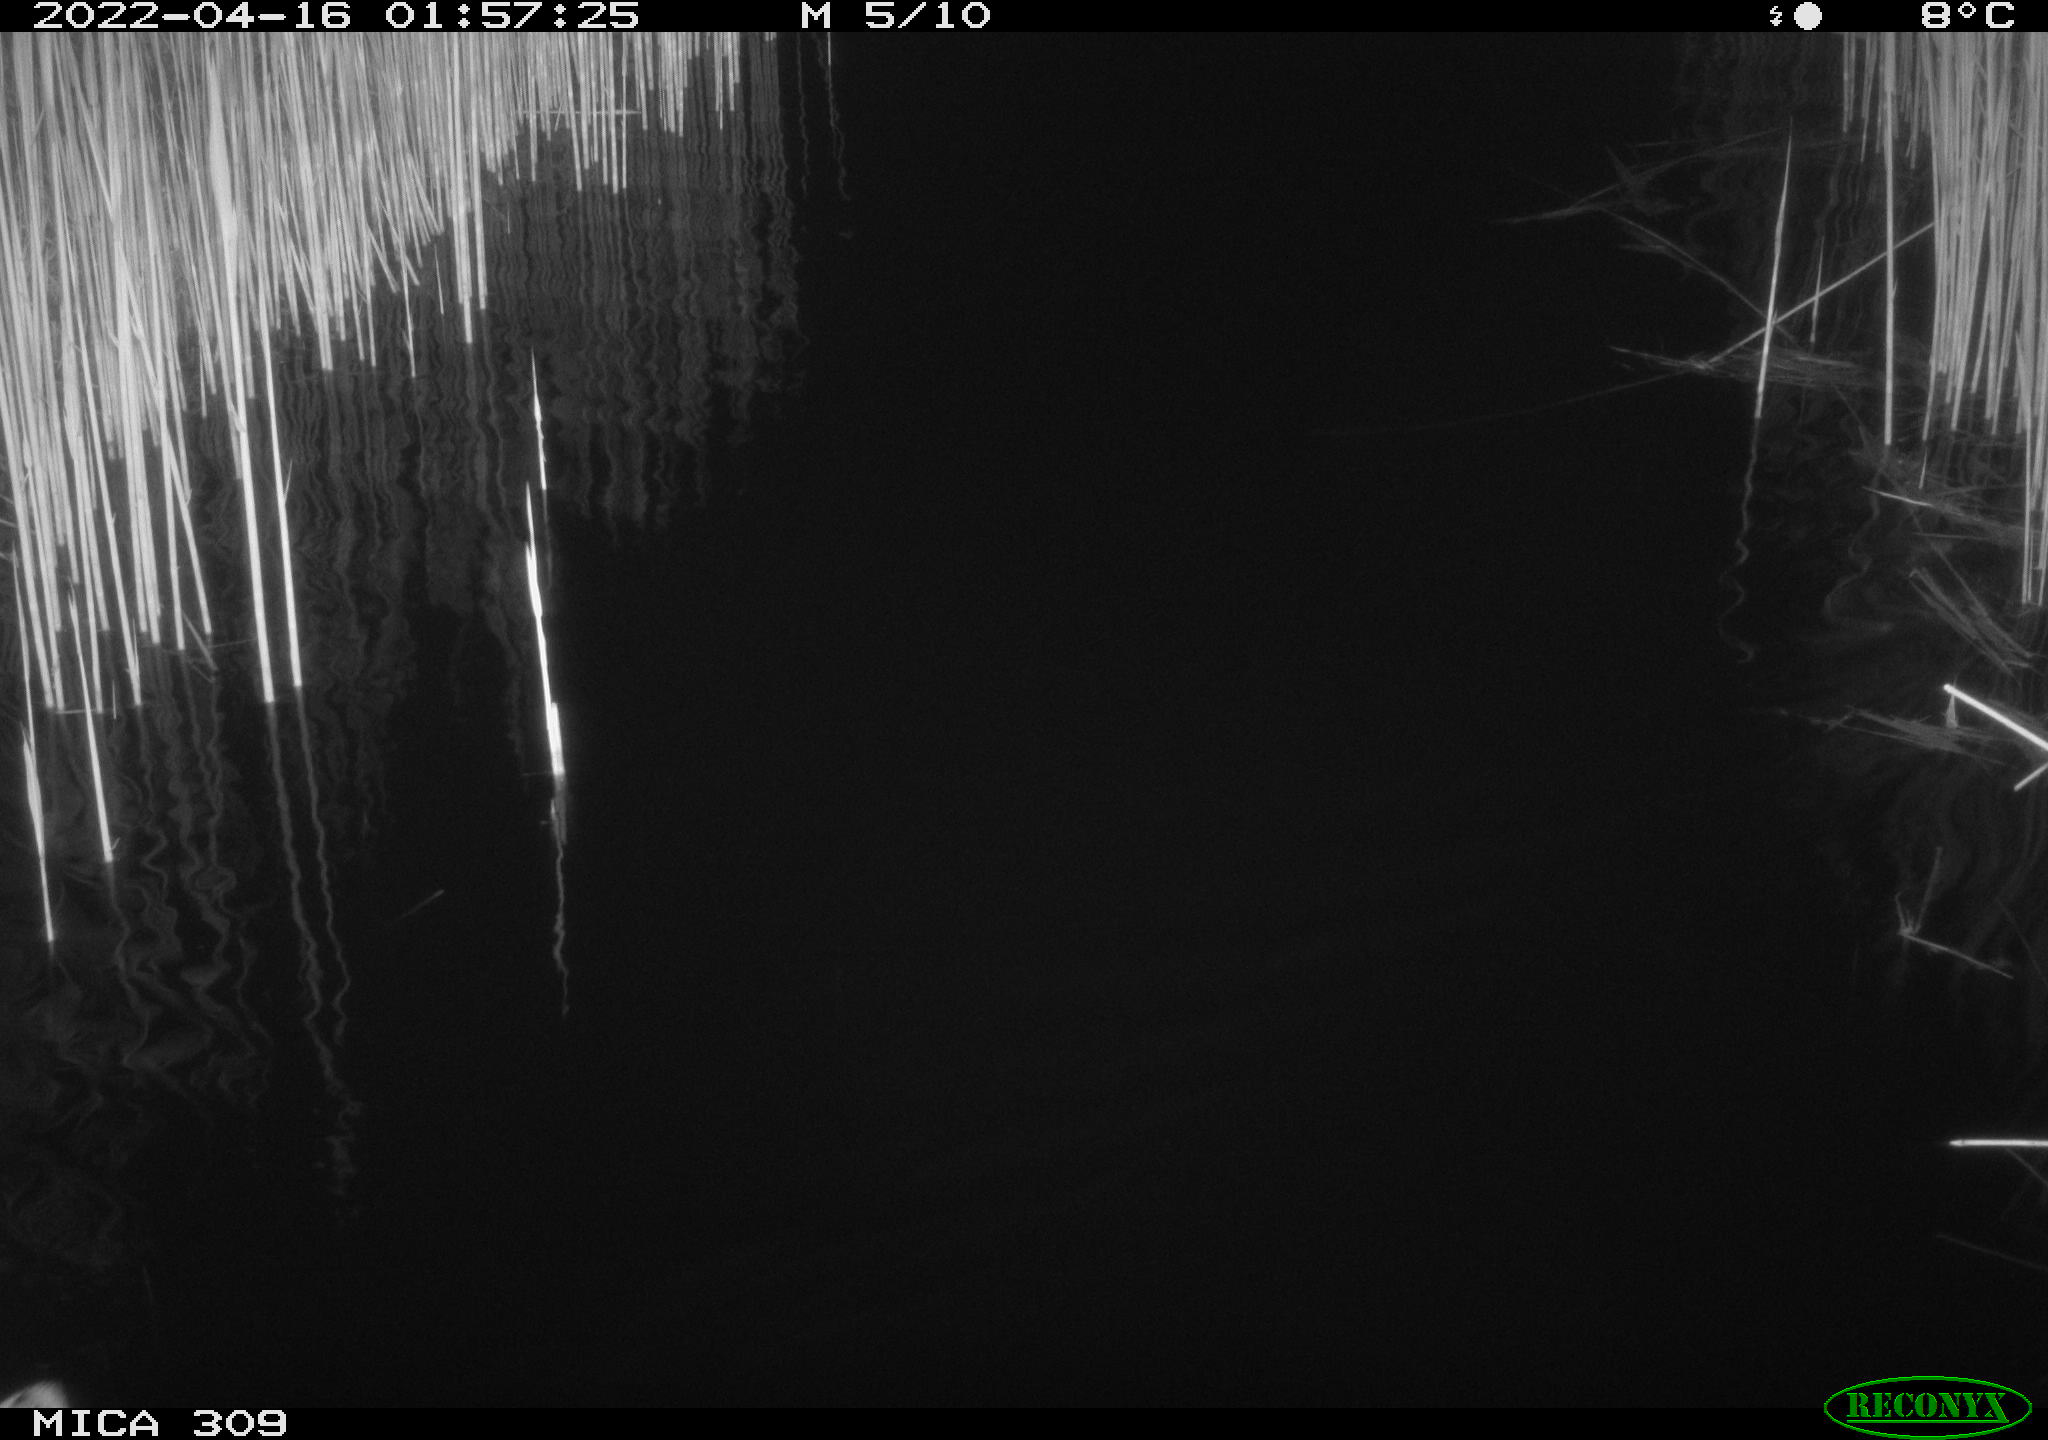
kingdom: Animalia
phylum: Chordata
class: Aves
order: Anseriformes
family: Anatidae
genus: Anas
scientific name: Anas platyrhynchos
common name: Mallard
